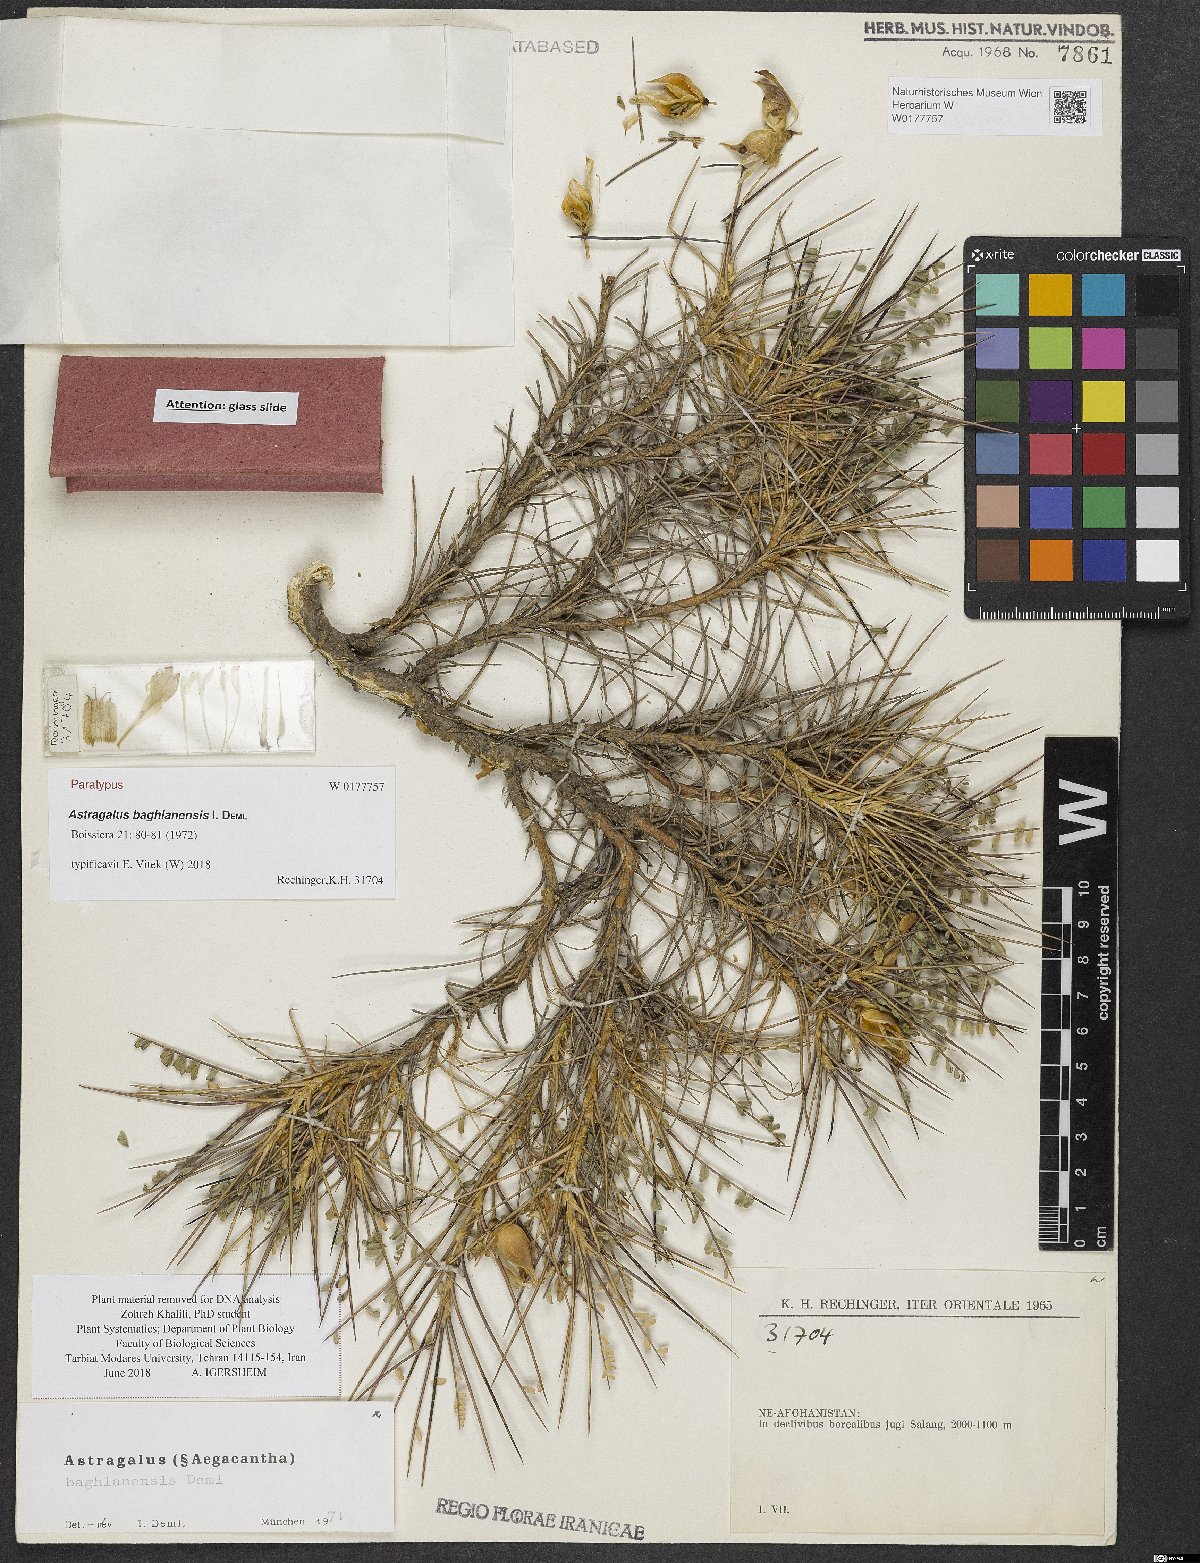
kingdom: Plantae
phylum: Tracheophyta
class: Magnoliopsida
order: Fabales
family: Fabaceae
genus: Astragalus
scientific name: Astragalus baghlanensis
